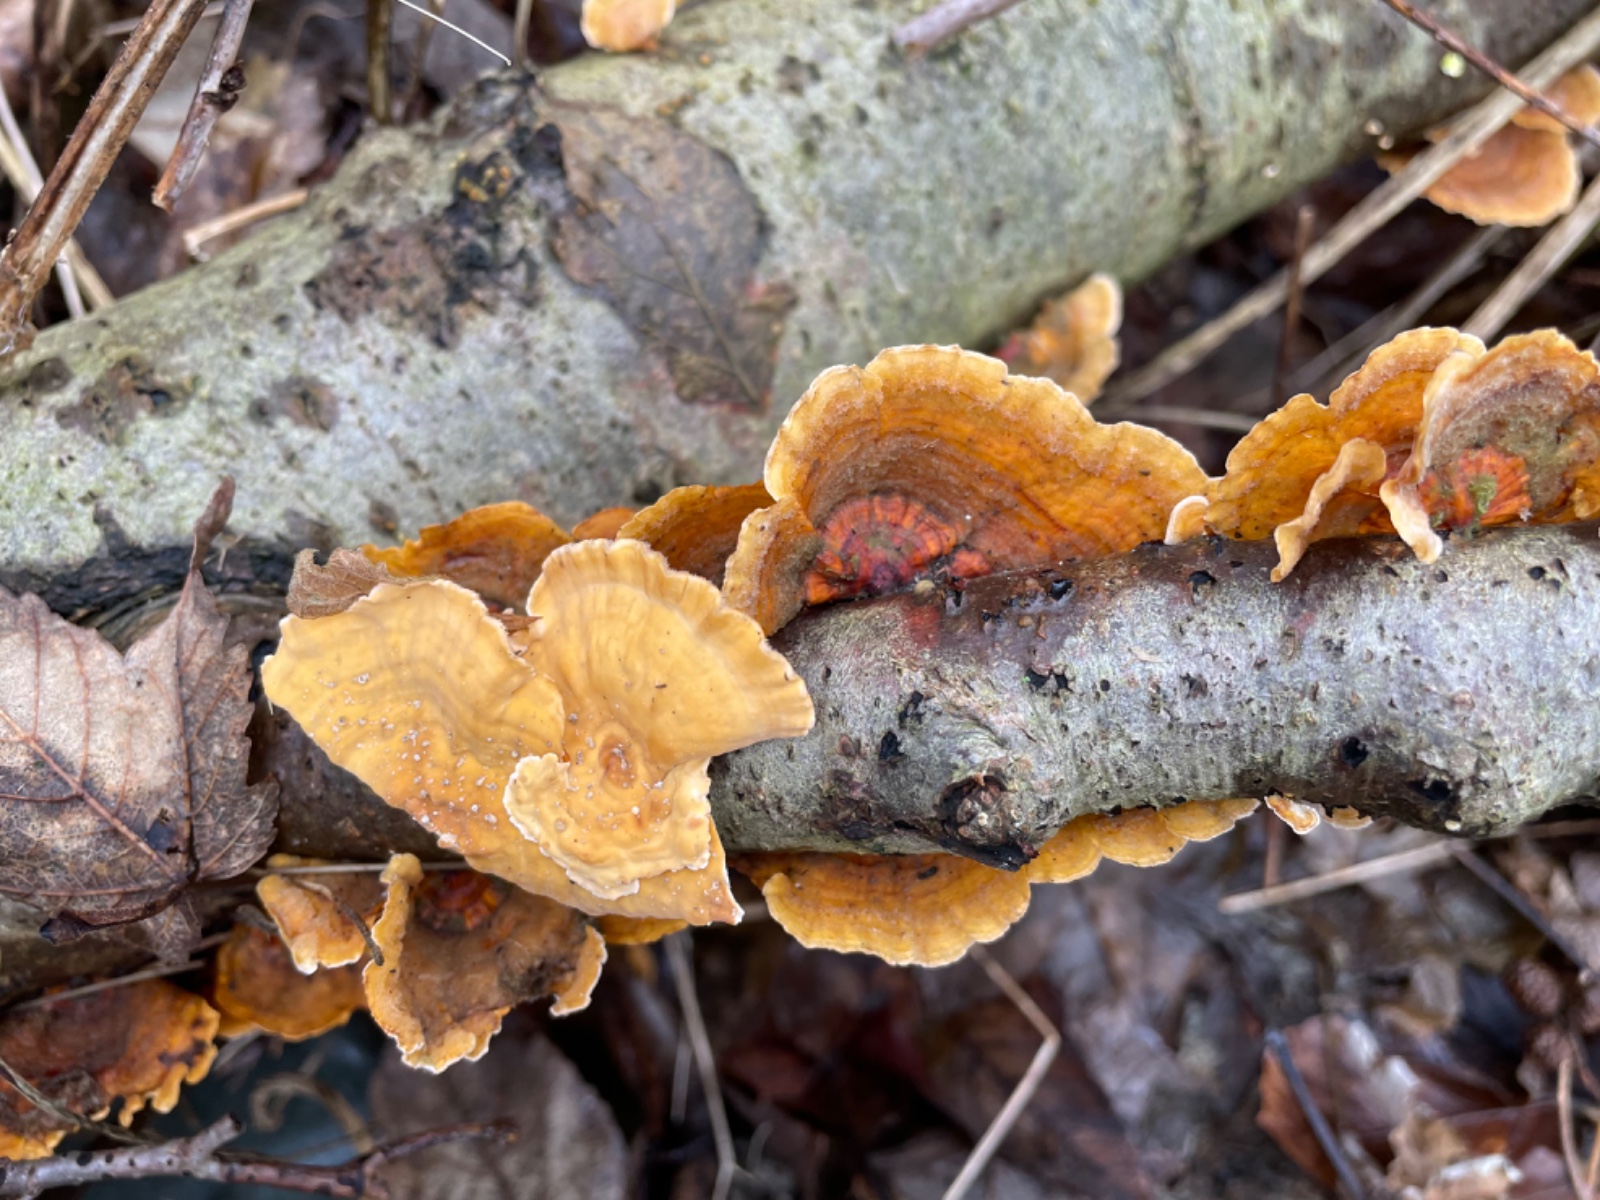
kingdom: Fungi
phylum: Basidiomycota
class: Agaricomycetes
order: Russulales
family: Stereaceae
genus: Stereum
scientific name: Stereum hirsutum
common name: håret lædersvamp
